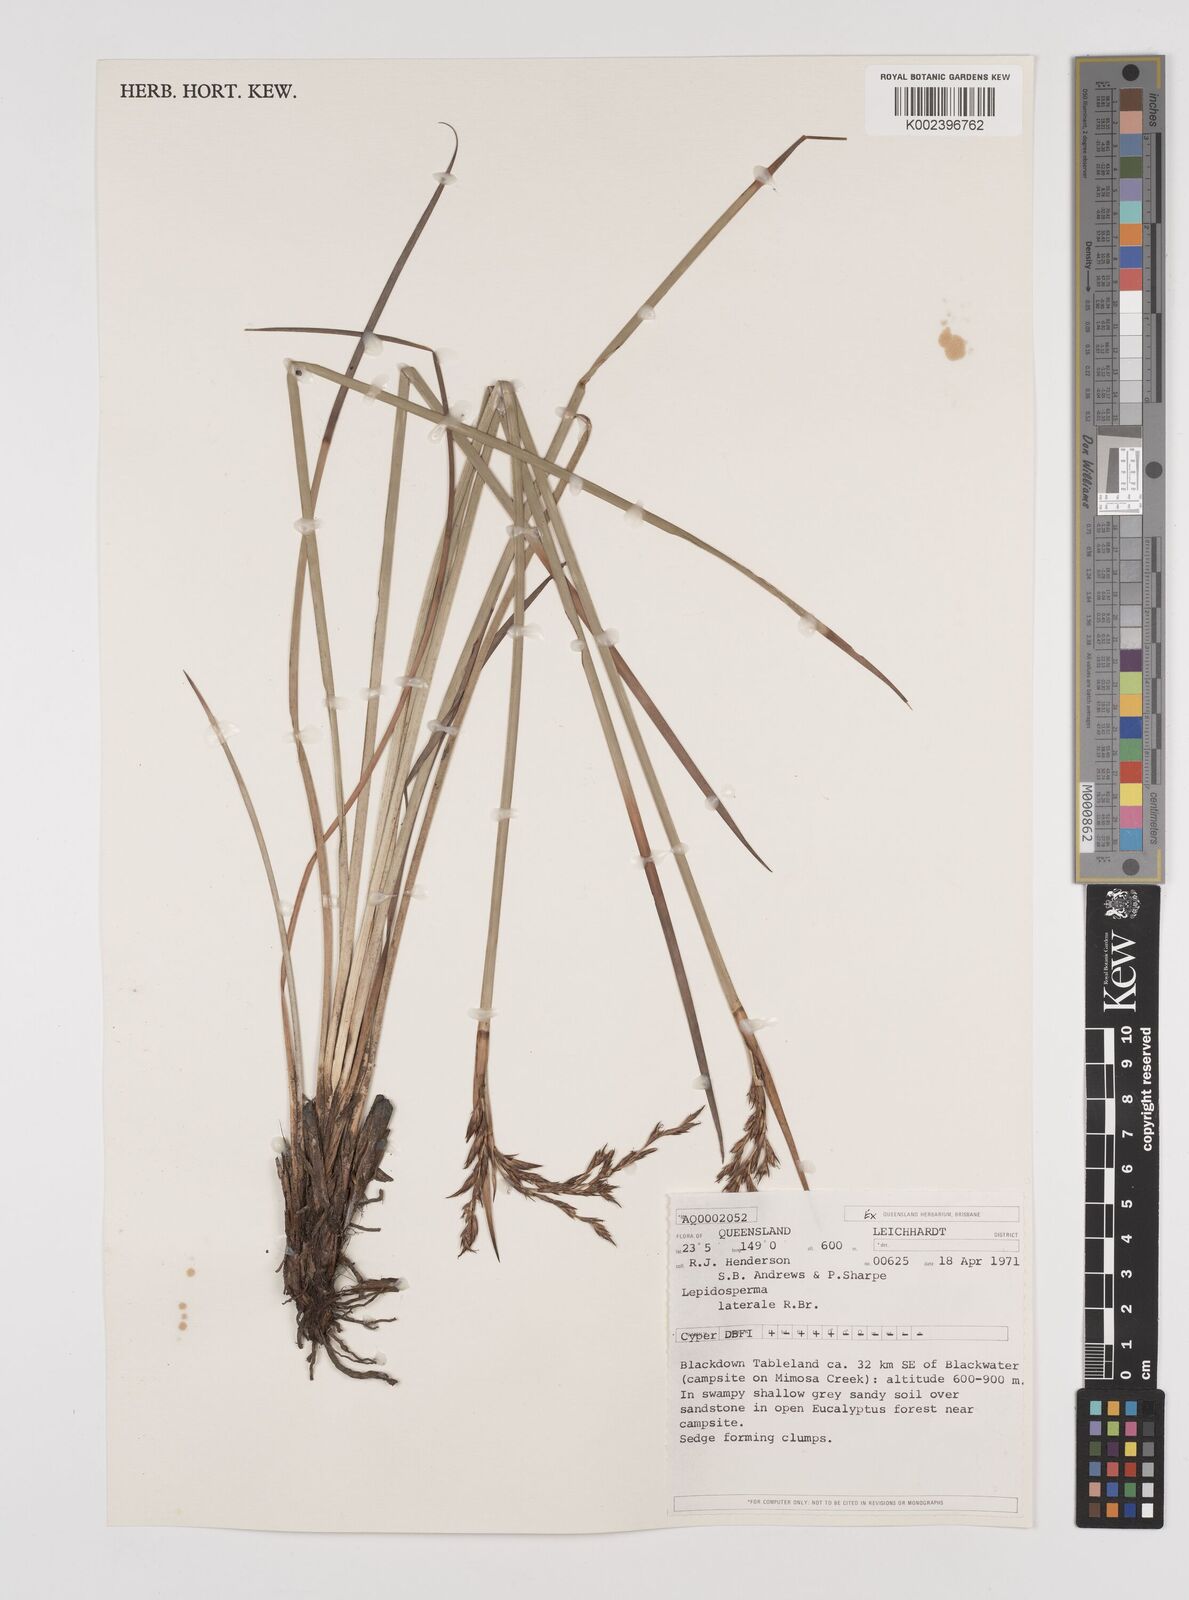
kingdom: Plantae
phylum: Tracheophyta
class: Liliopsida
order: Poales
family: Cyperaceae
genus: Lepidosperma
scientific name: Lepidosperma laterale
